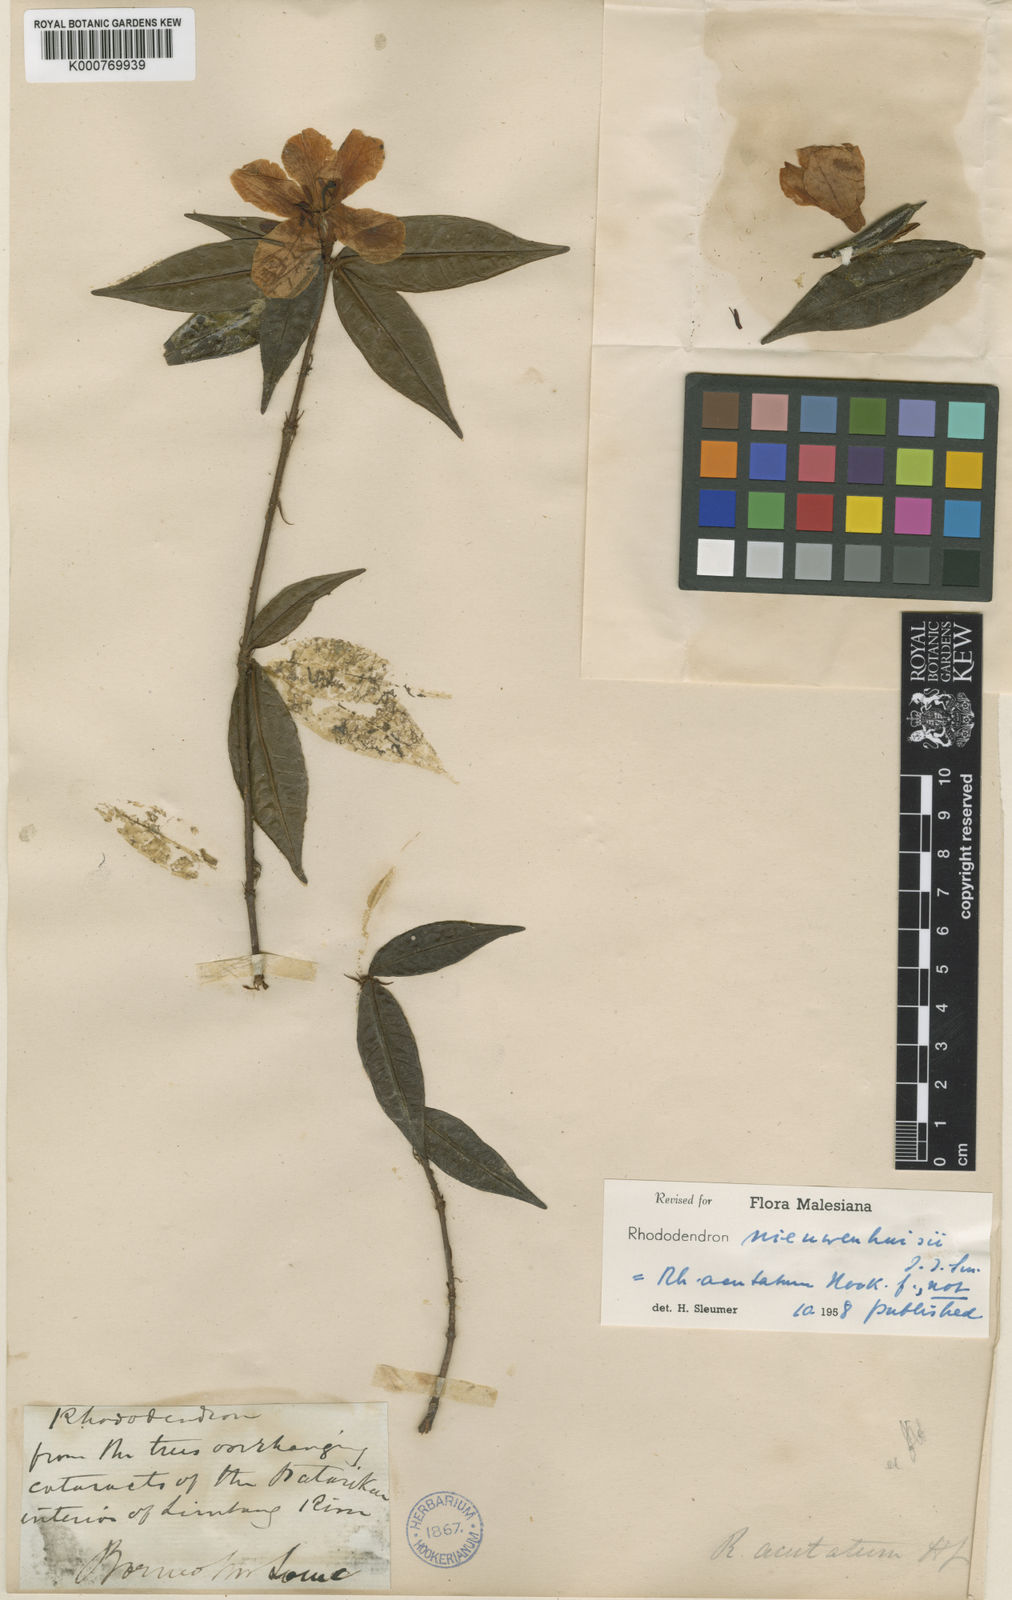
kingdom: Plantae
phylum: Tracheophyta
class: Magnoliopsida
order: Ericales
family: Ericaceae
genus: Rhododendron
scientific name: Rhododendron nieuwenhuisii
